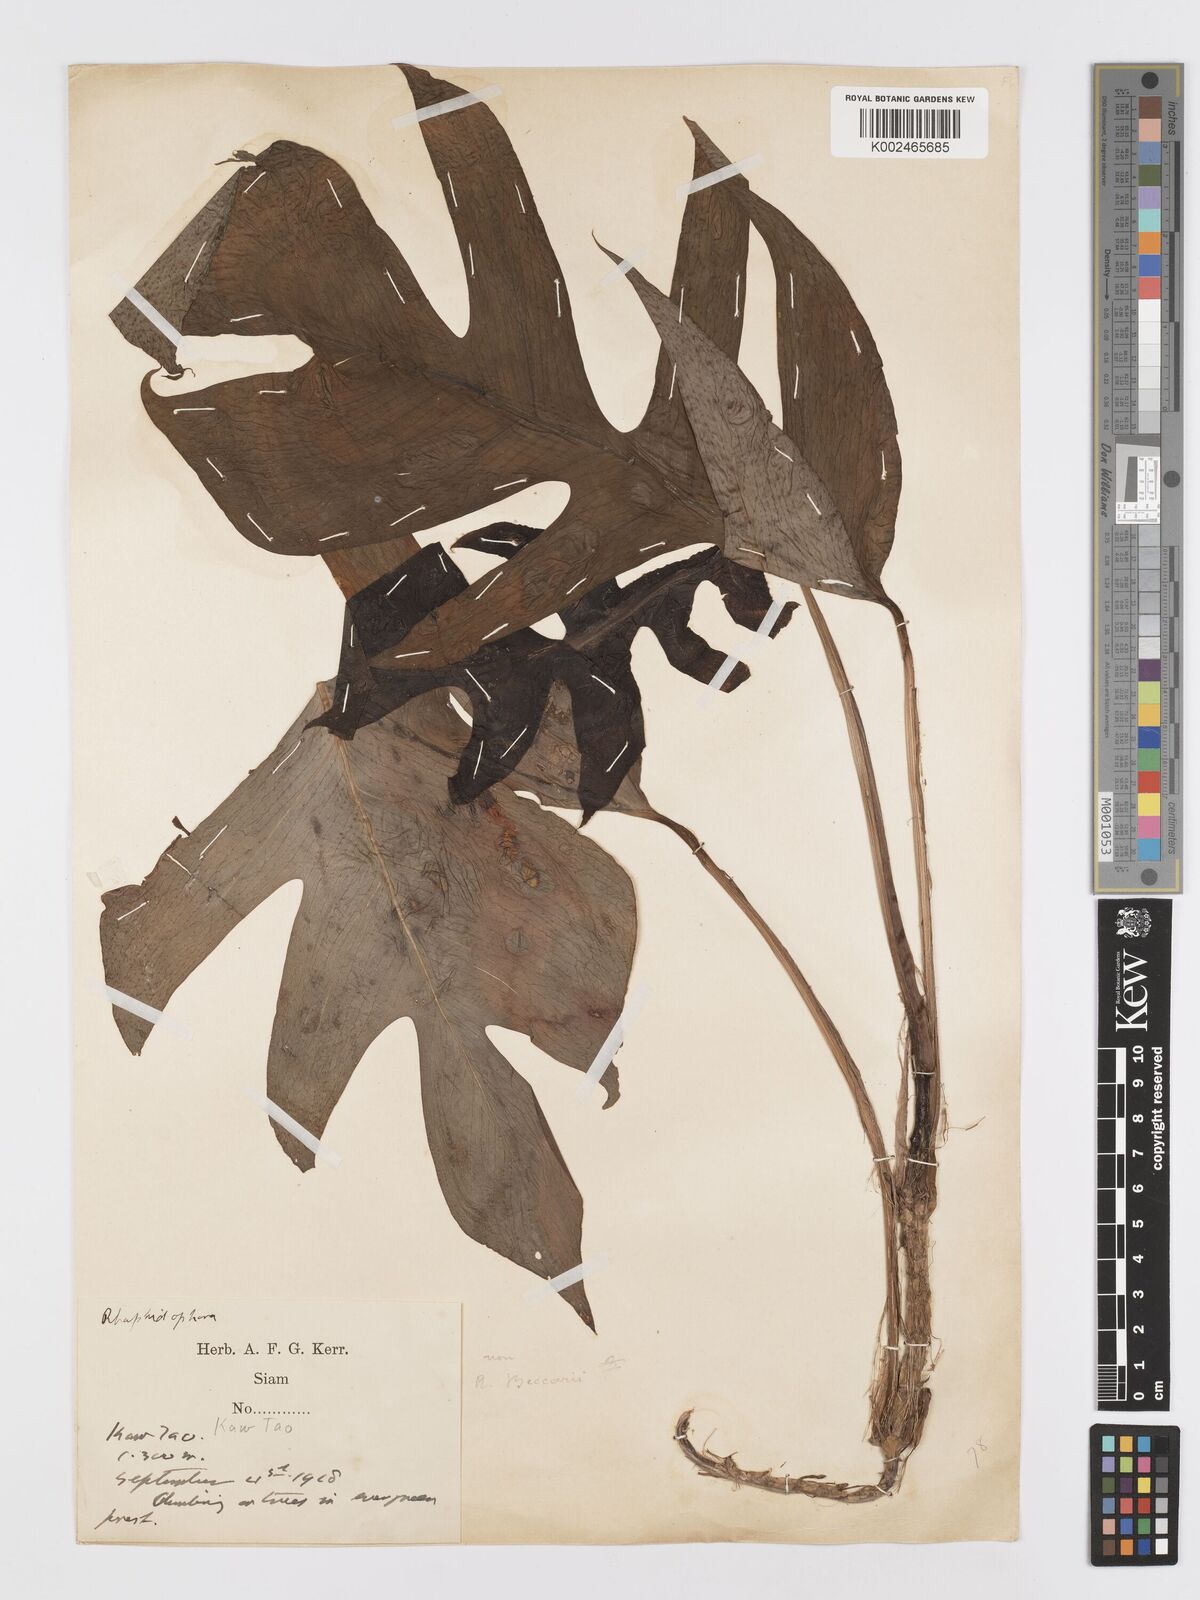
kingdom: Plantae
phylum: Tracheophyta
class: Liliopsida
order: Alismatales
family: Araceae
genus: Rhaphidophora
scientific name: Rhaphidophora korthalsii
